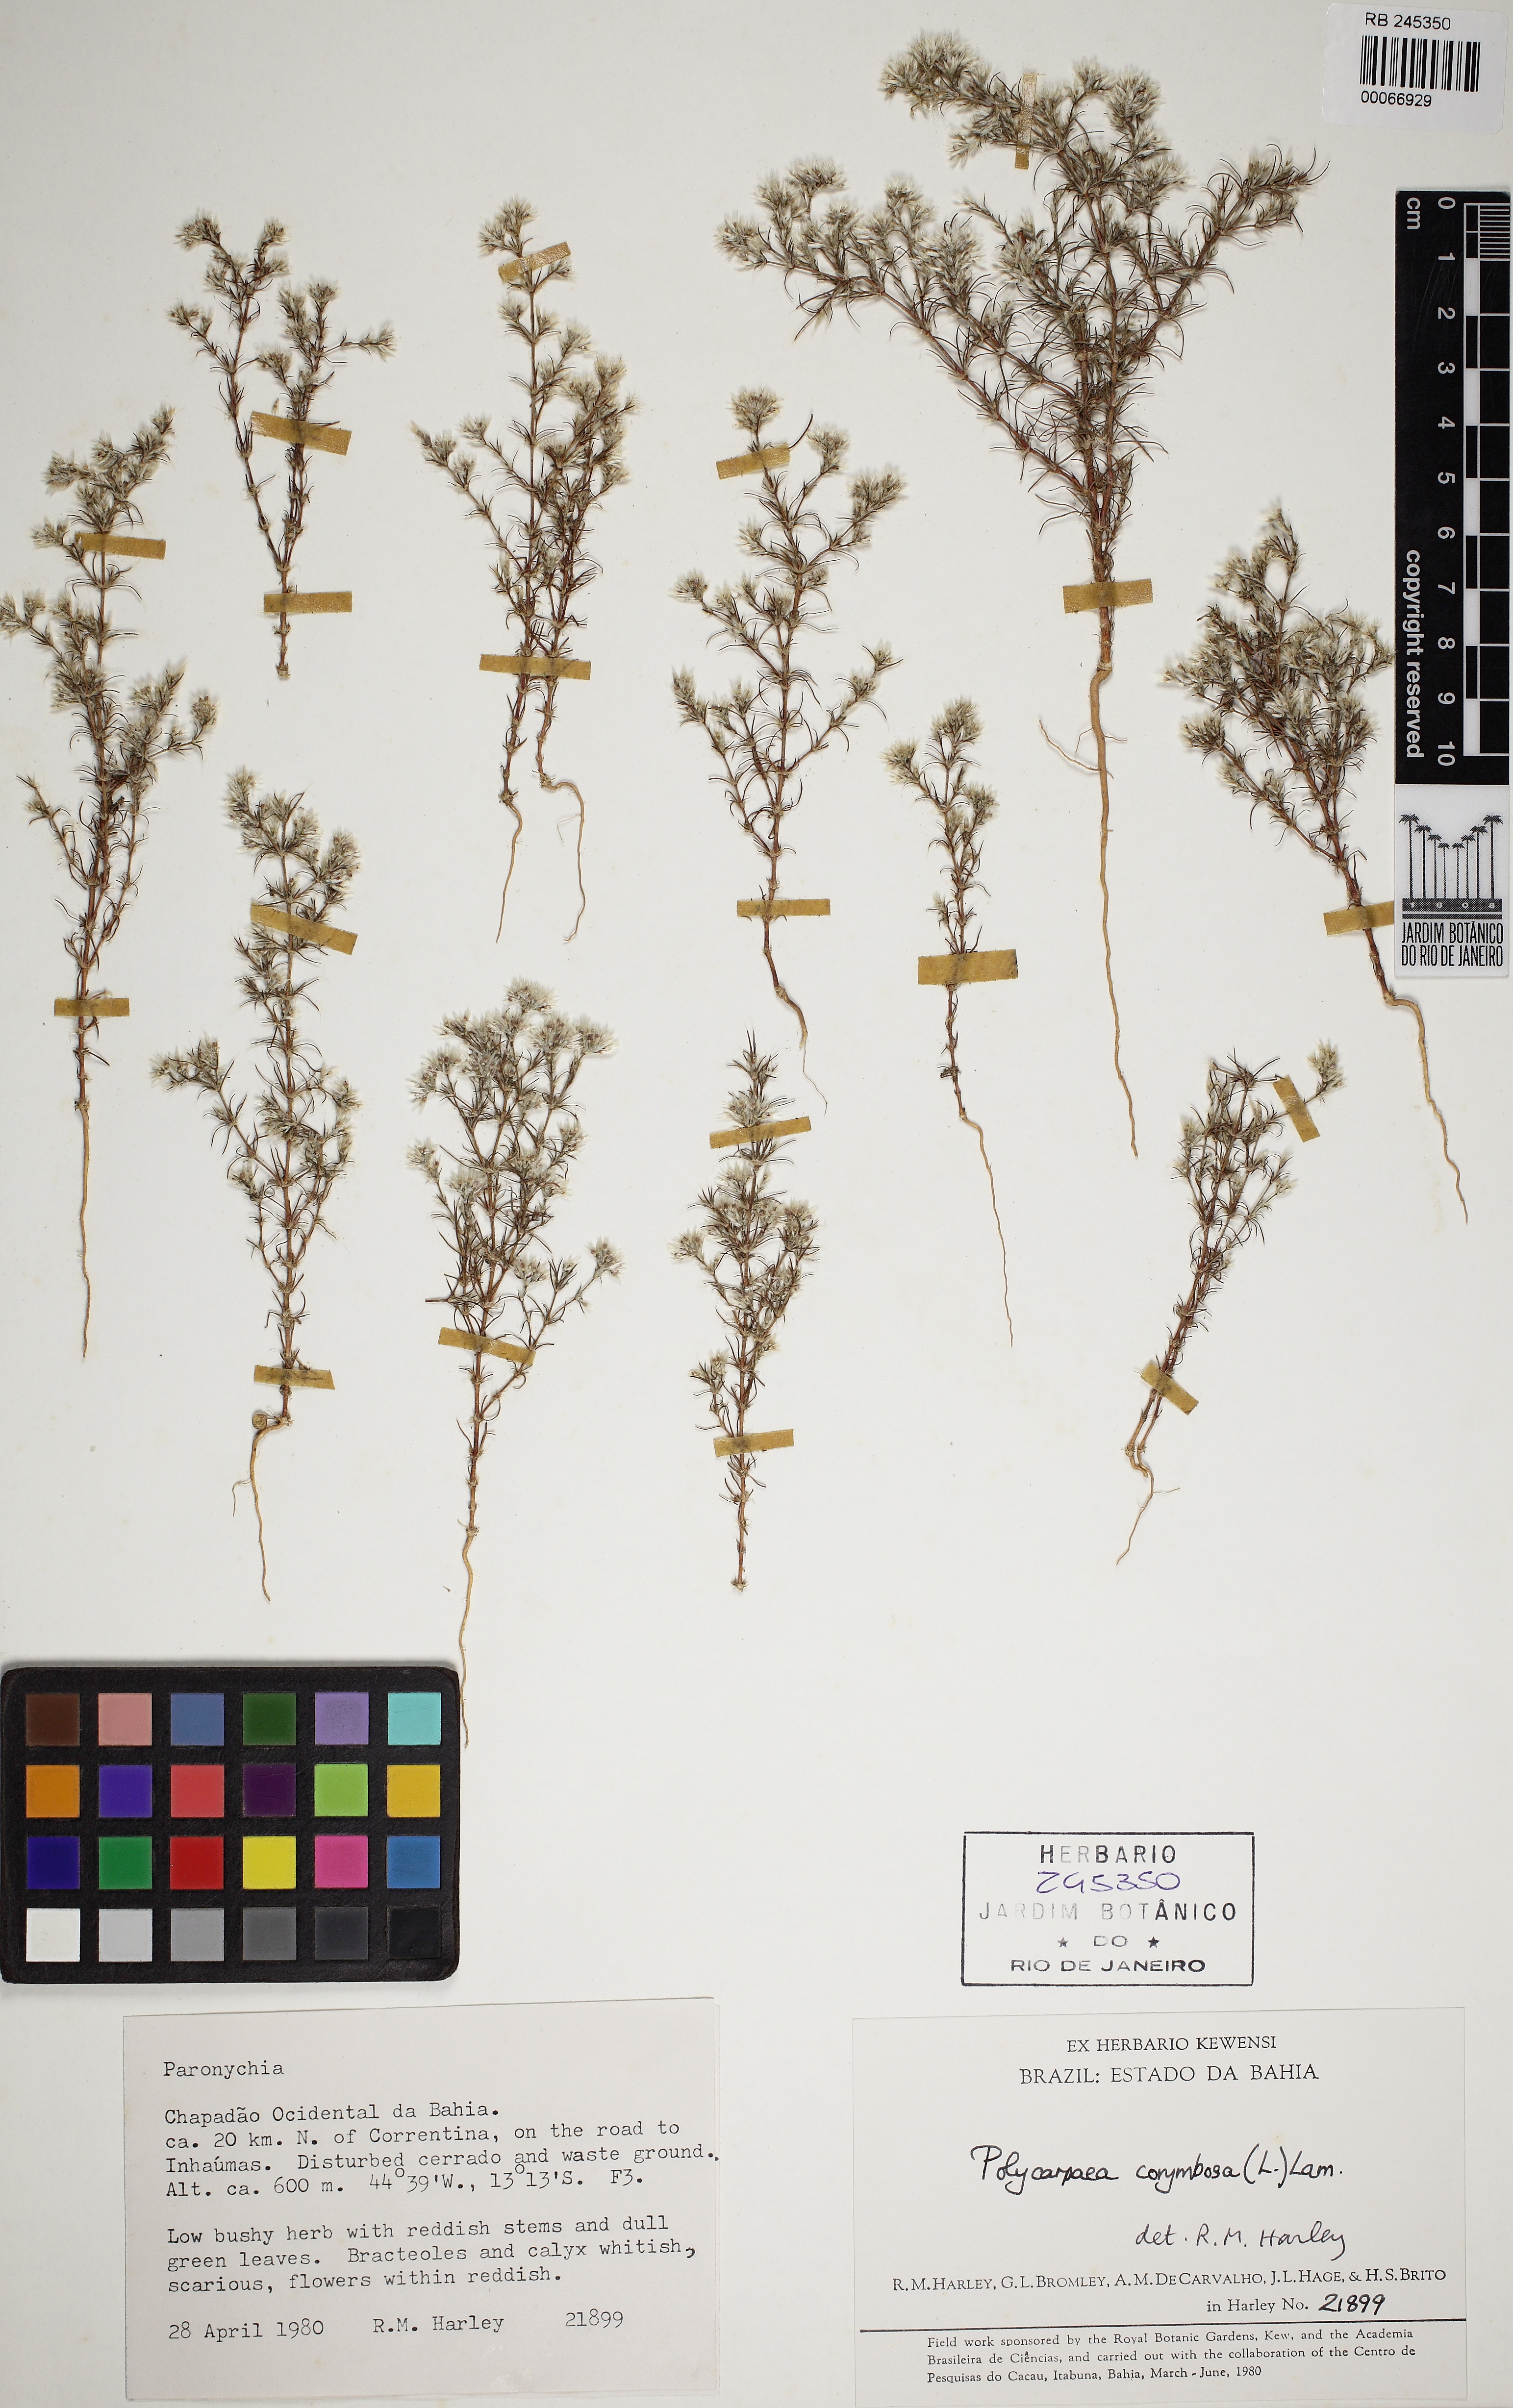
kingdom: Plantae
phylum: Tracheophyta
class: Magnoliopsida
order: Caryophyllales
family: Caryophyllaceae
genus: Polycarpaea
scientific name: Polycarpaea corymbosa
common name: Oldman's cap
